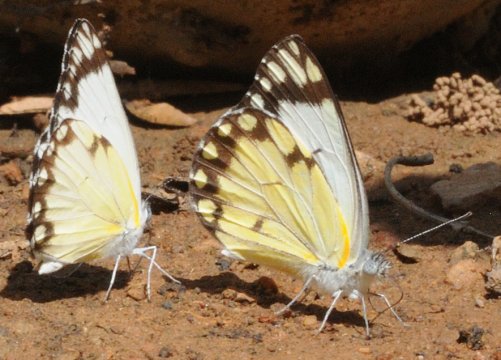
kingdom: Animalia
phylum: Arthropoda
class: Insecta
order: Lepidoptera
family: Pieridae
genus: Belenois
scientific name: Belenois creona
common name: African Caper
